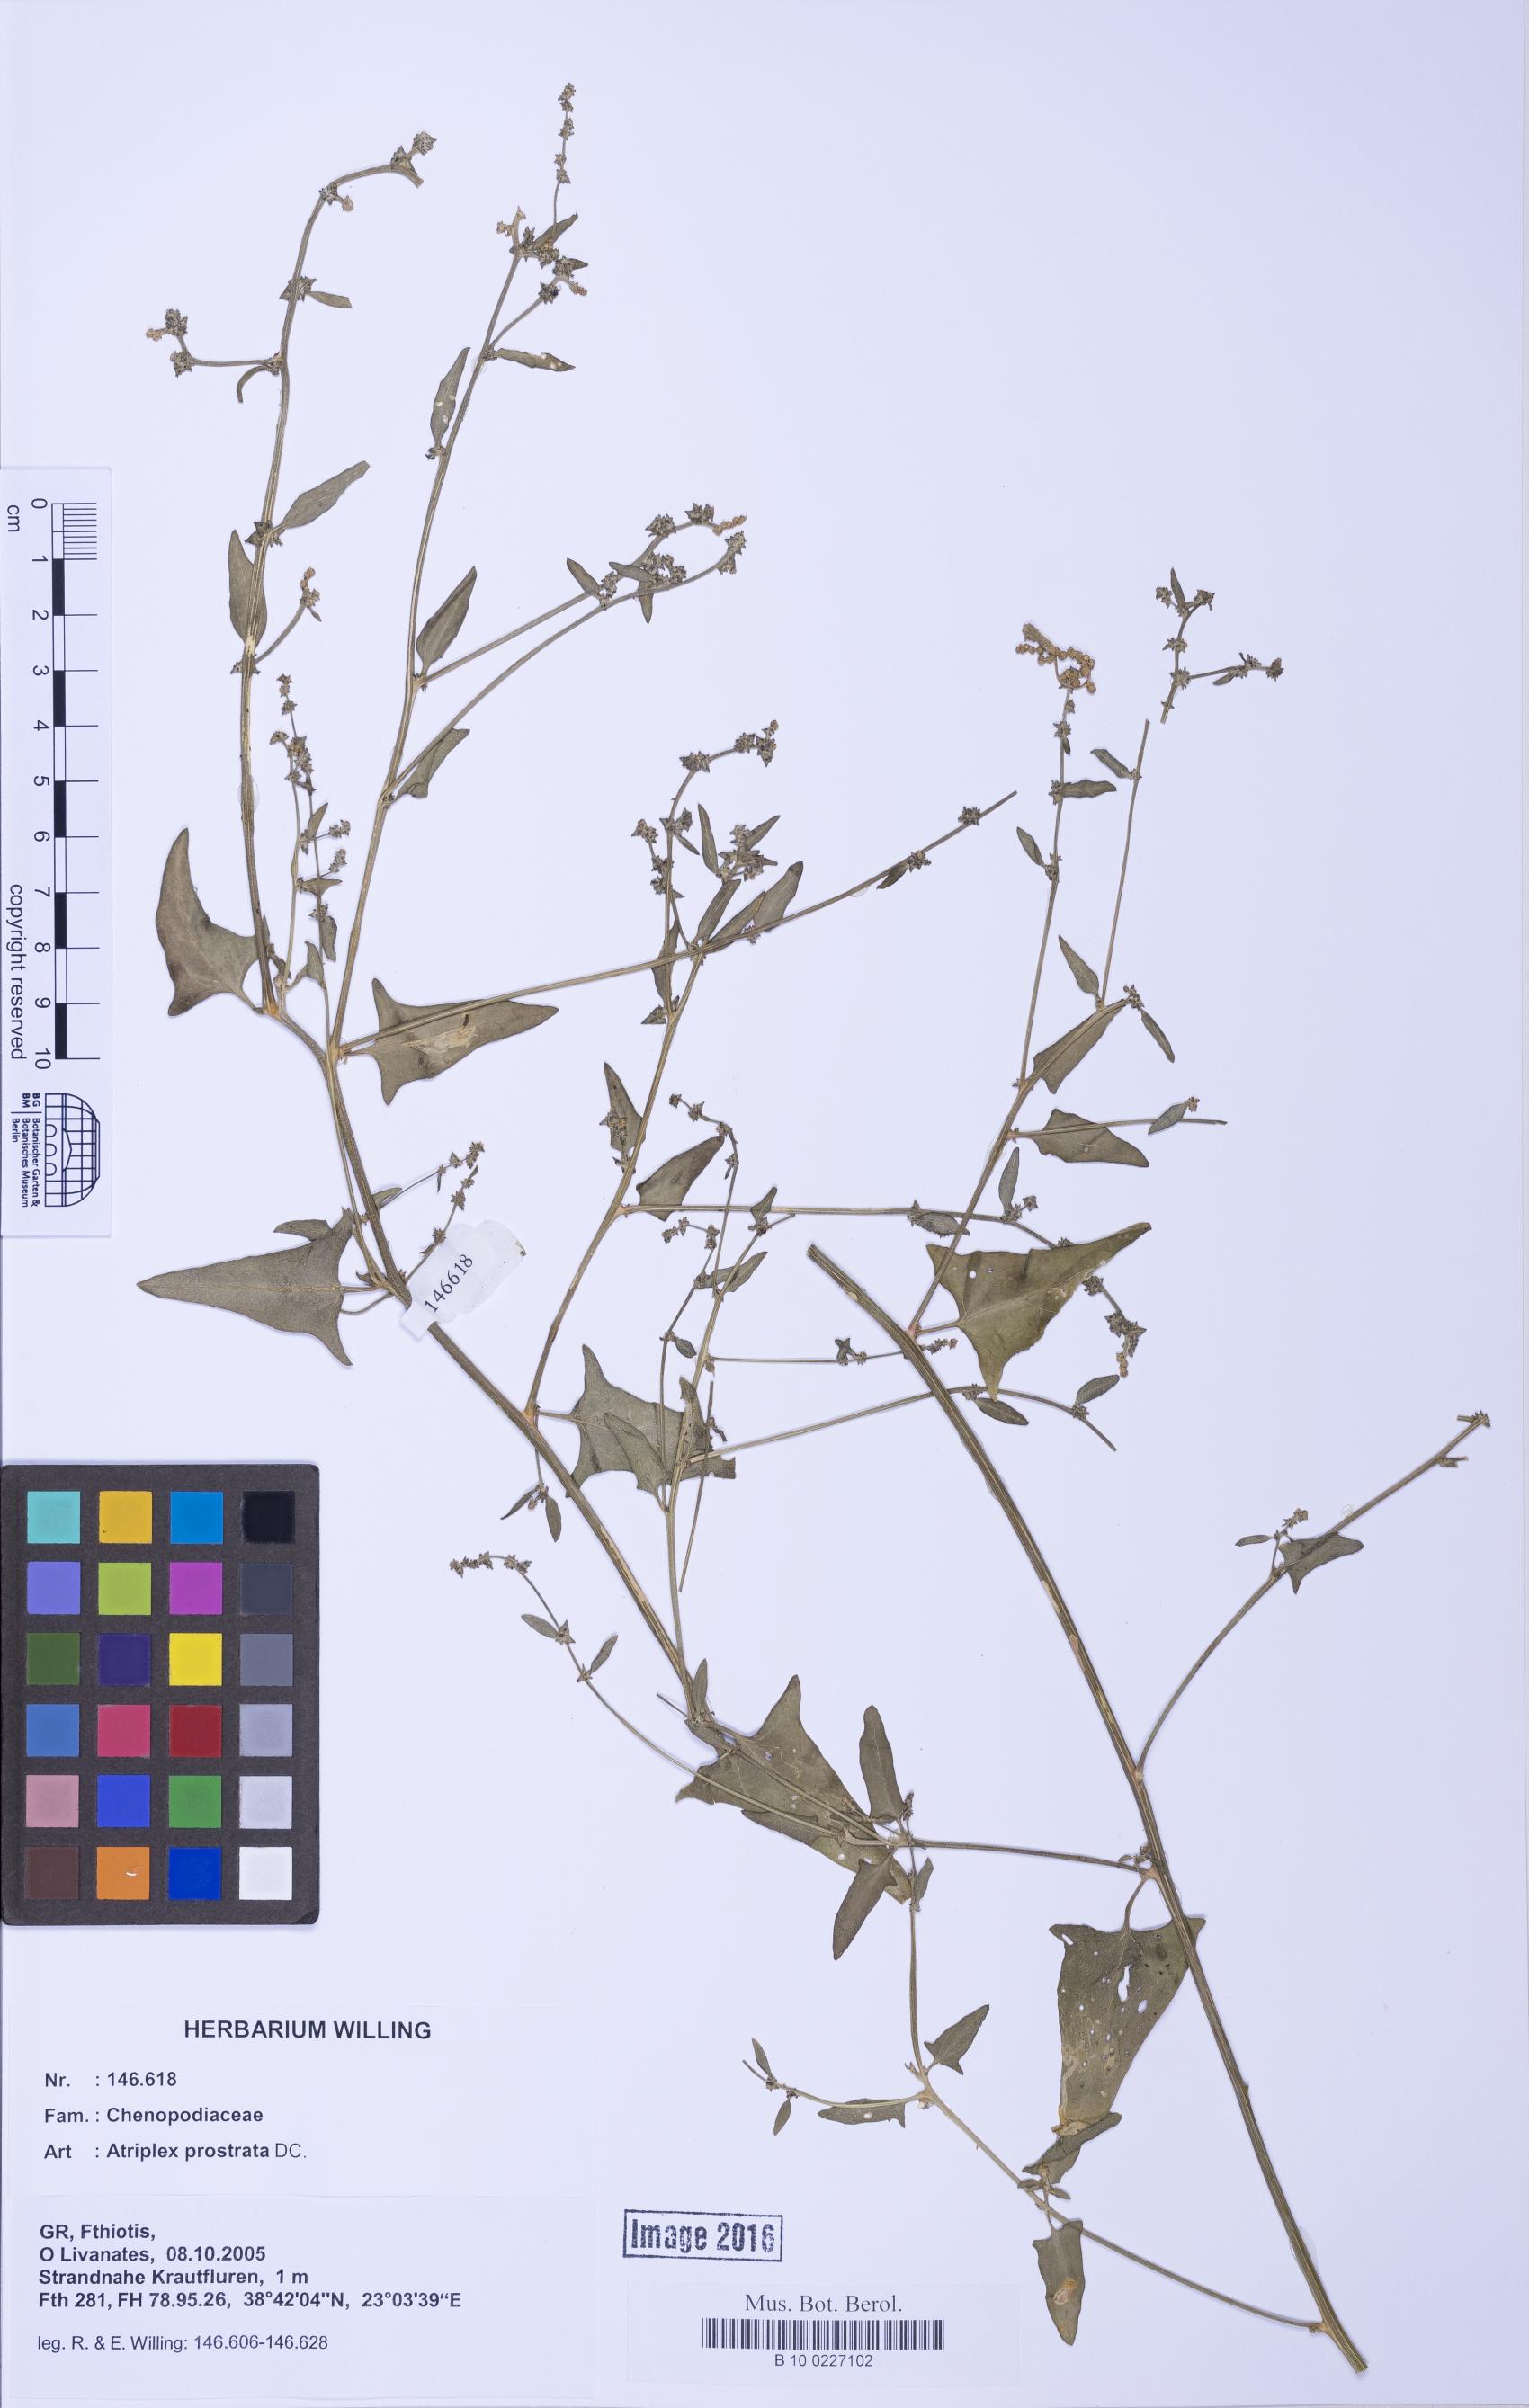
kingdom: Plantae
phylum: Tracheophyta
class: Magnoliopsida
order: Caryophyllales
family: Amaranthaceae
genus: Atriplex
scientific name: Atriplex prostrata
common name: Spear-leaved orache
